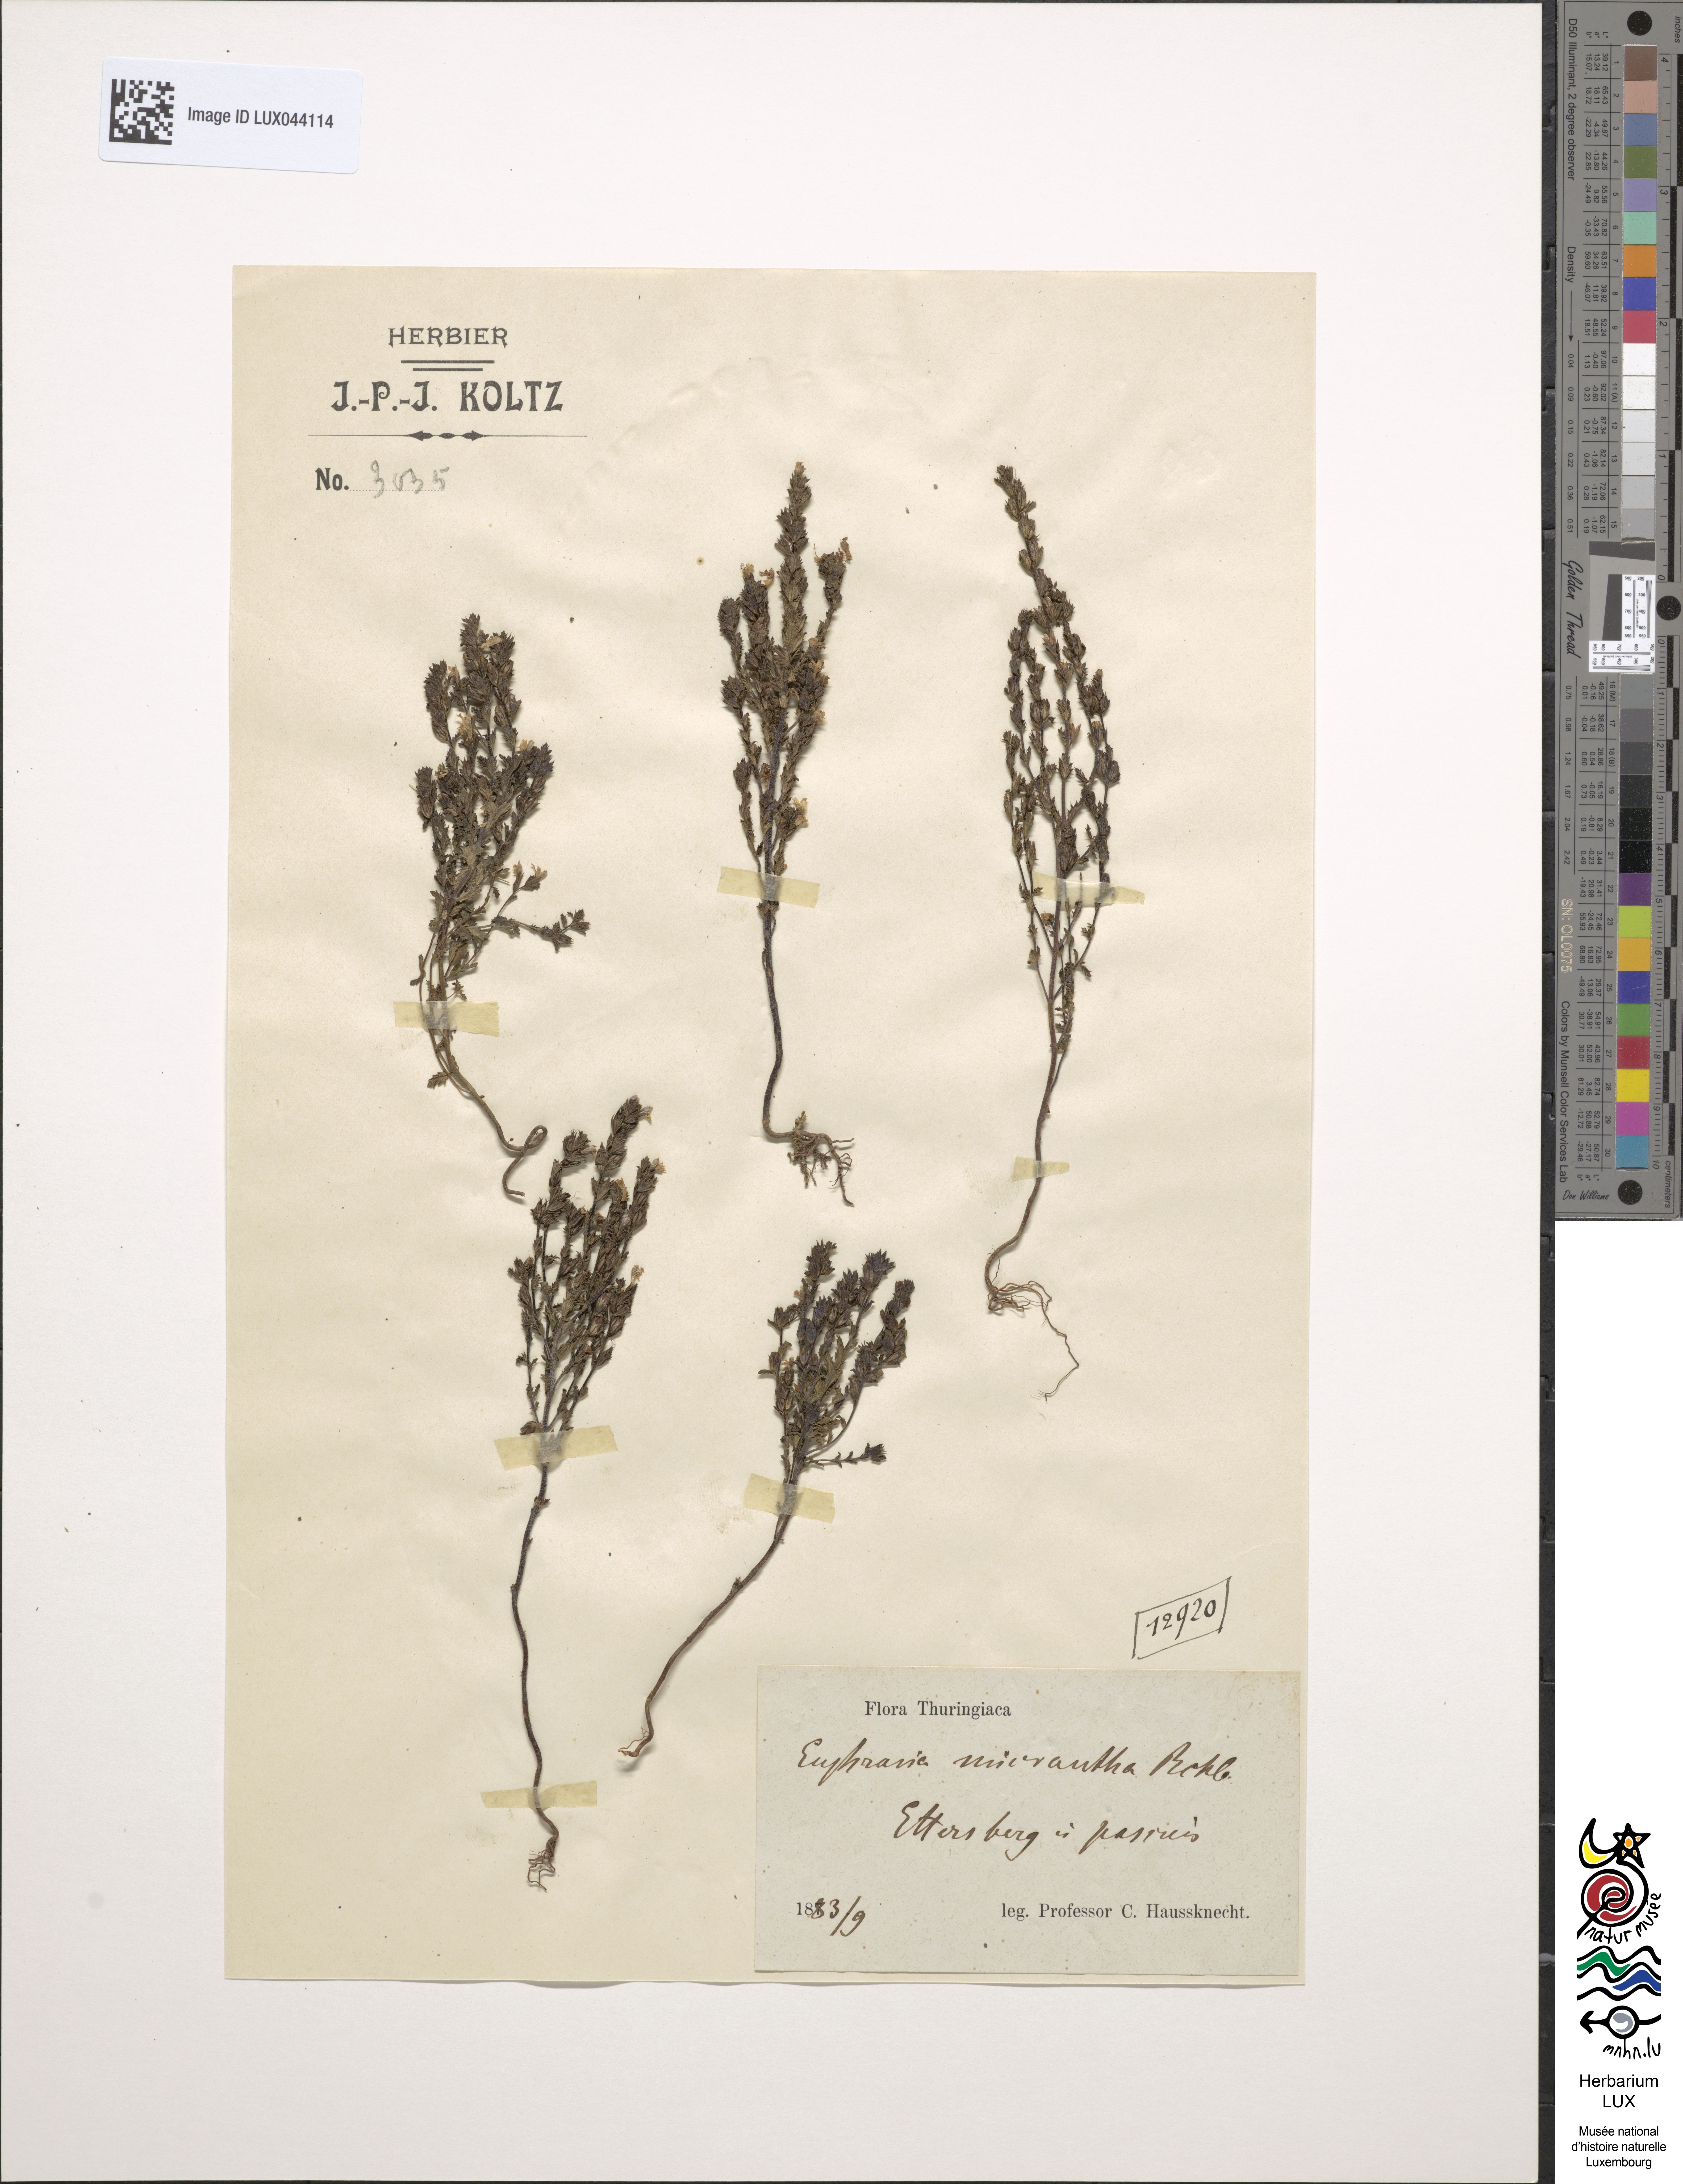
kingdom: Plantae
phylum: Tracheophyta
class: Magnoliopsida
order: Lamiales
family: Orobanchaceae
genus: Euphrasia
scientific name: Euphrasia micrantha
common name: Northern eyebright
